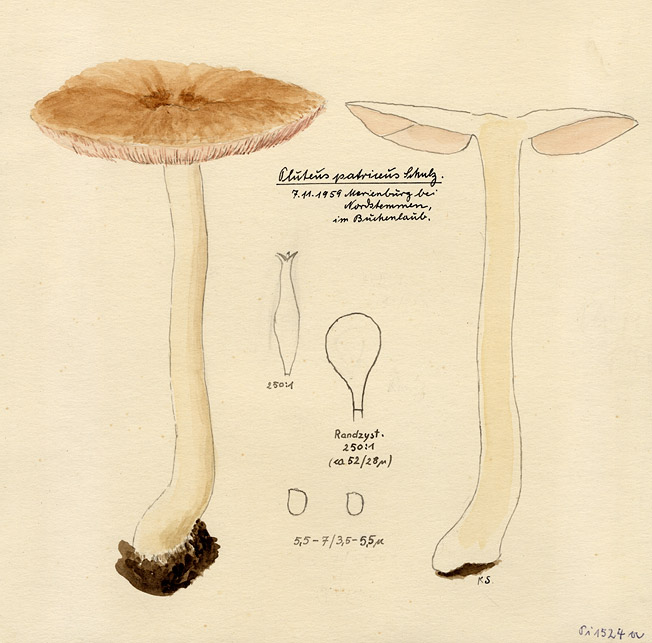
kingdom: Fungi
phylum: Basidiomycota
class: Agaricomycetes
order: Agaricales
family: Pluteaceae
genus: Pluteus
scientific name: Pluteus petasatus
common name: Scaly shield
